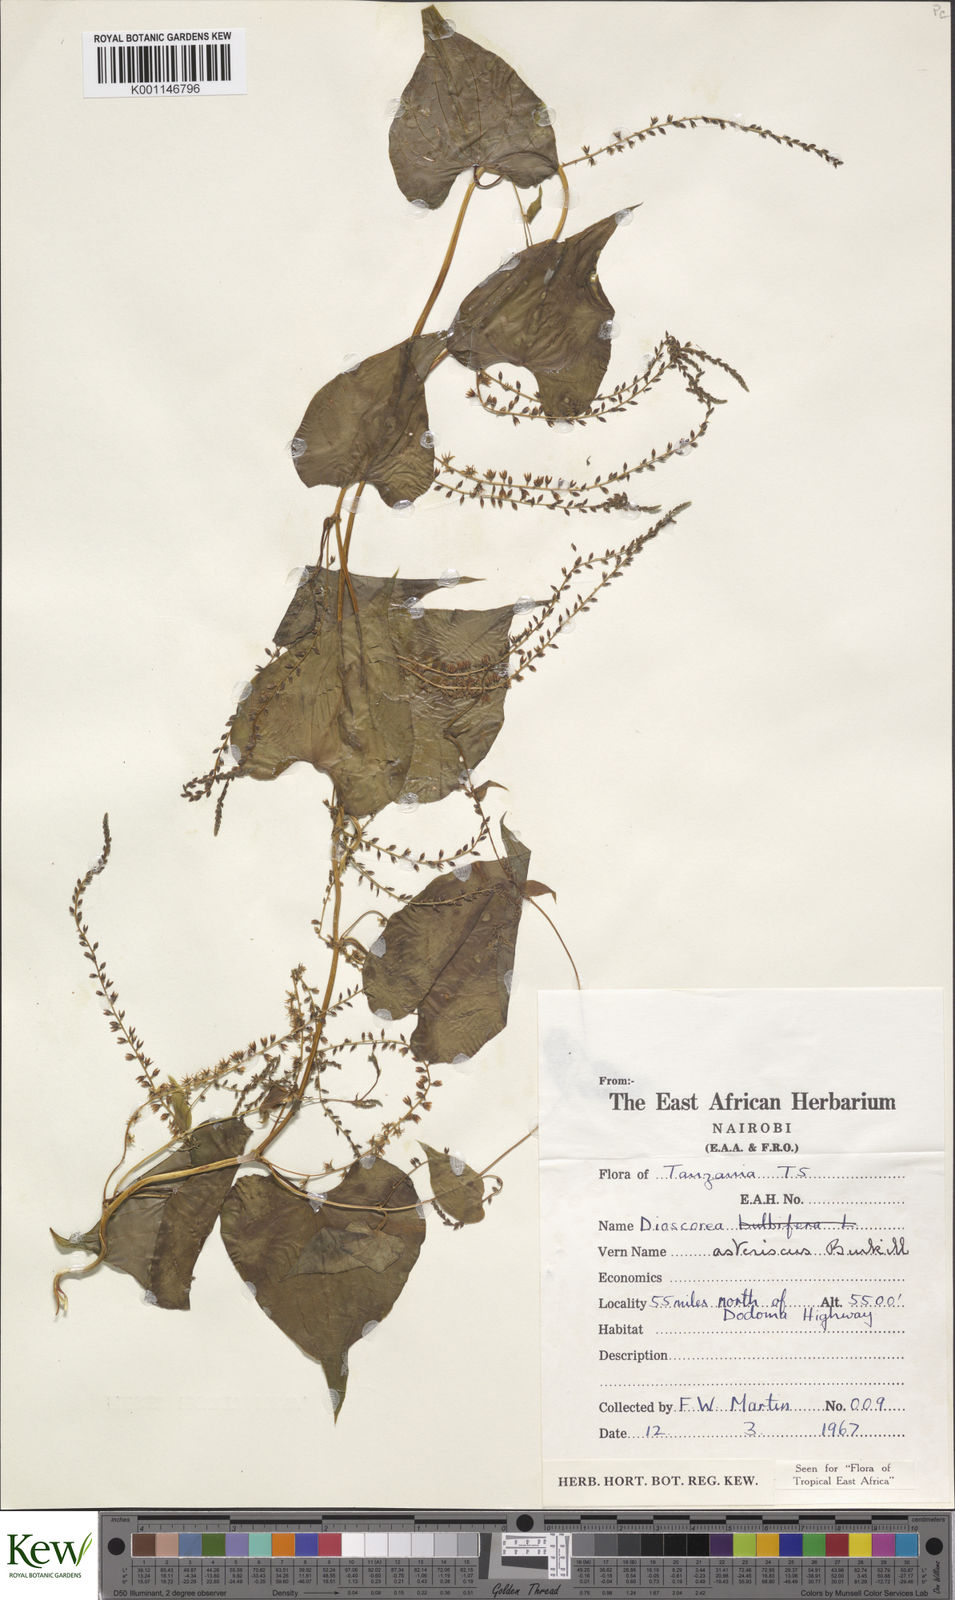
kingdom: Plantae
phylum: Tracheophyta
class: Liliopsida
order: Dioscoreales
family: Dioscoreaceae
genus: Dioscorea
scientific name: Dioscorea asteriscus
